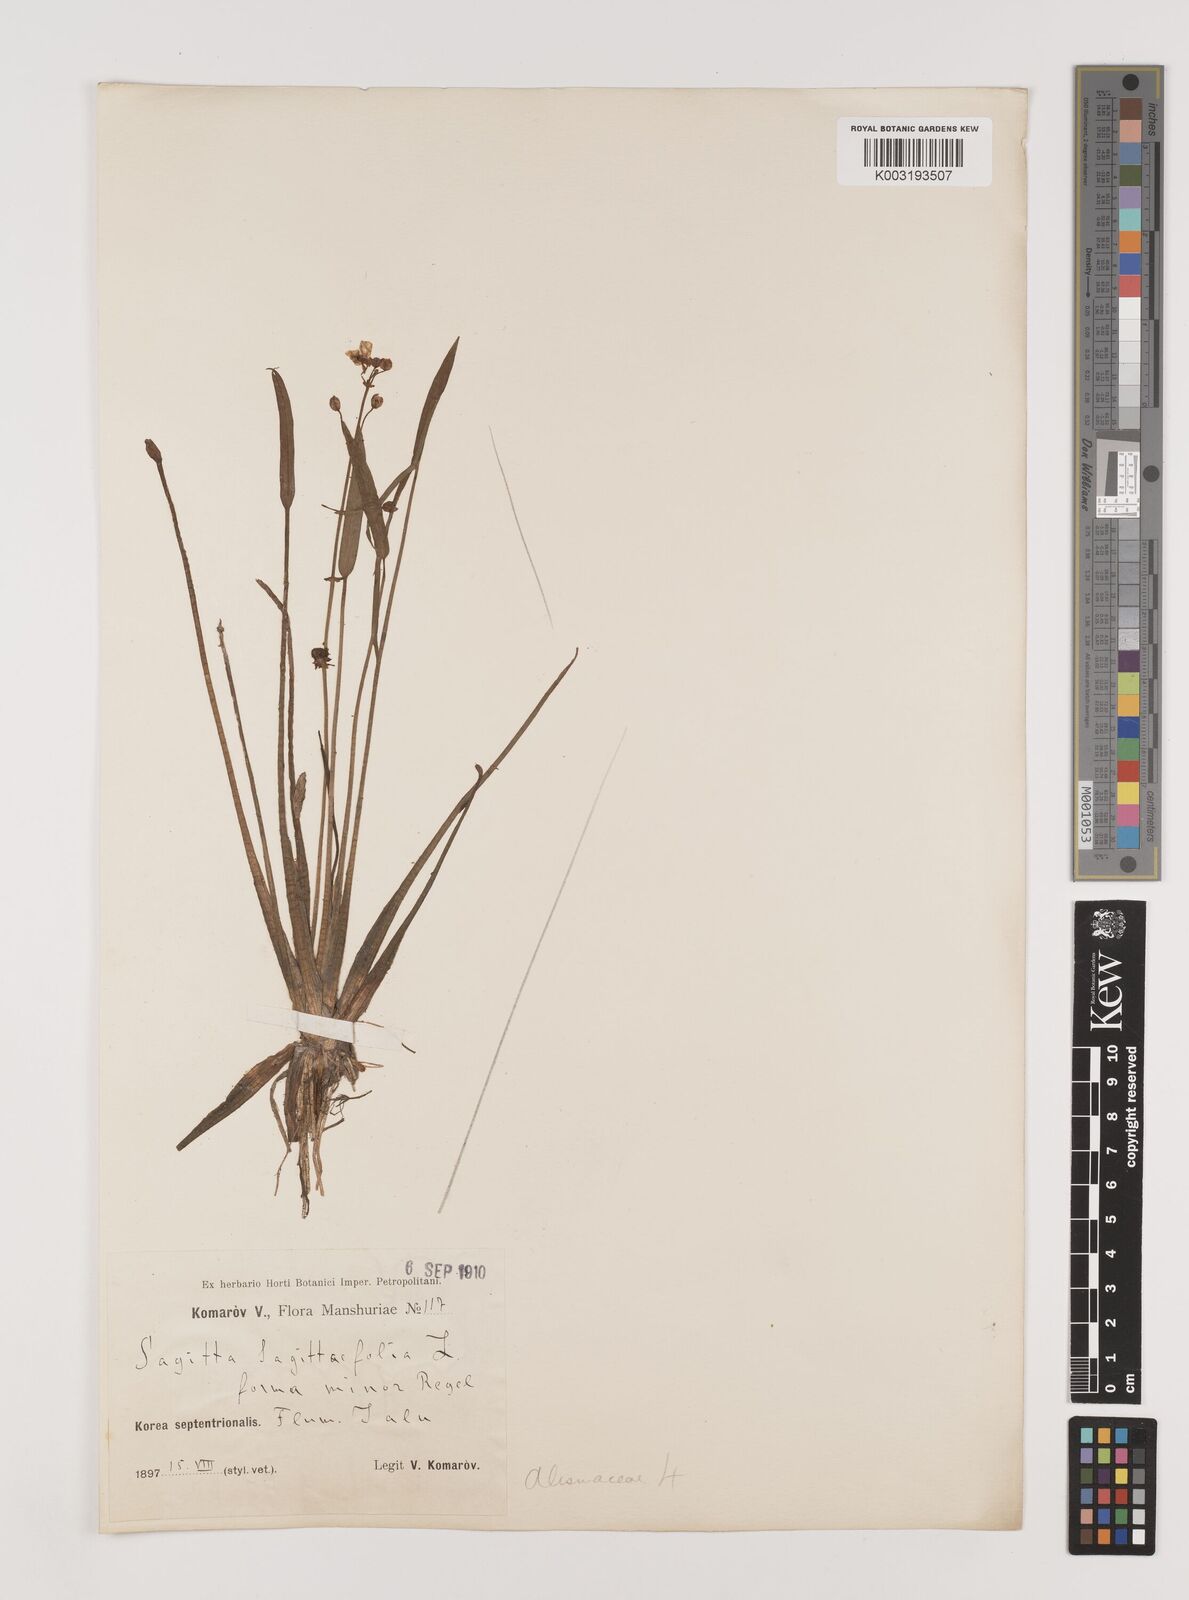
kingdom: Plantae
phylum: Tracheophyta
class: Liliopsida
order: Alismatales
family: Alismataceae
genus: Sagittaria
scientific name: Sagittaria sagittifolia
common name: Arrowhead
